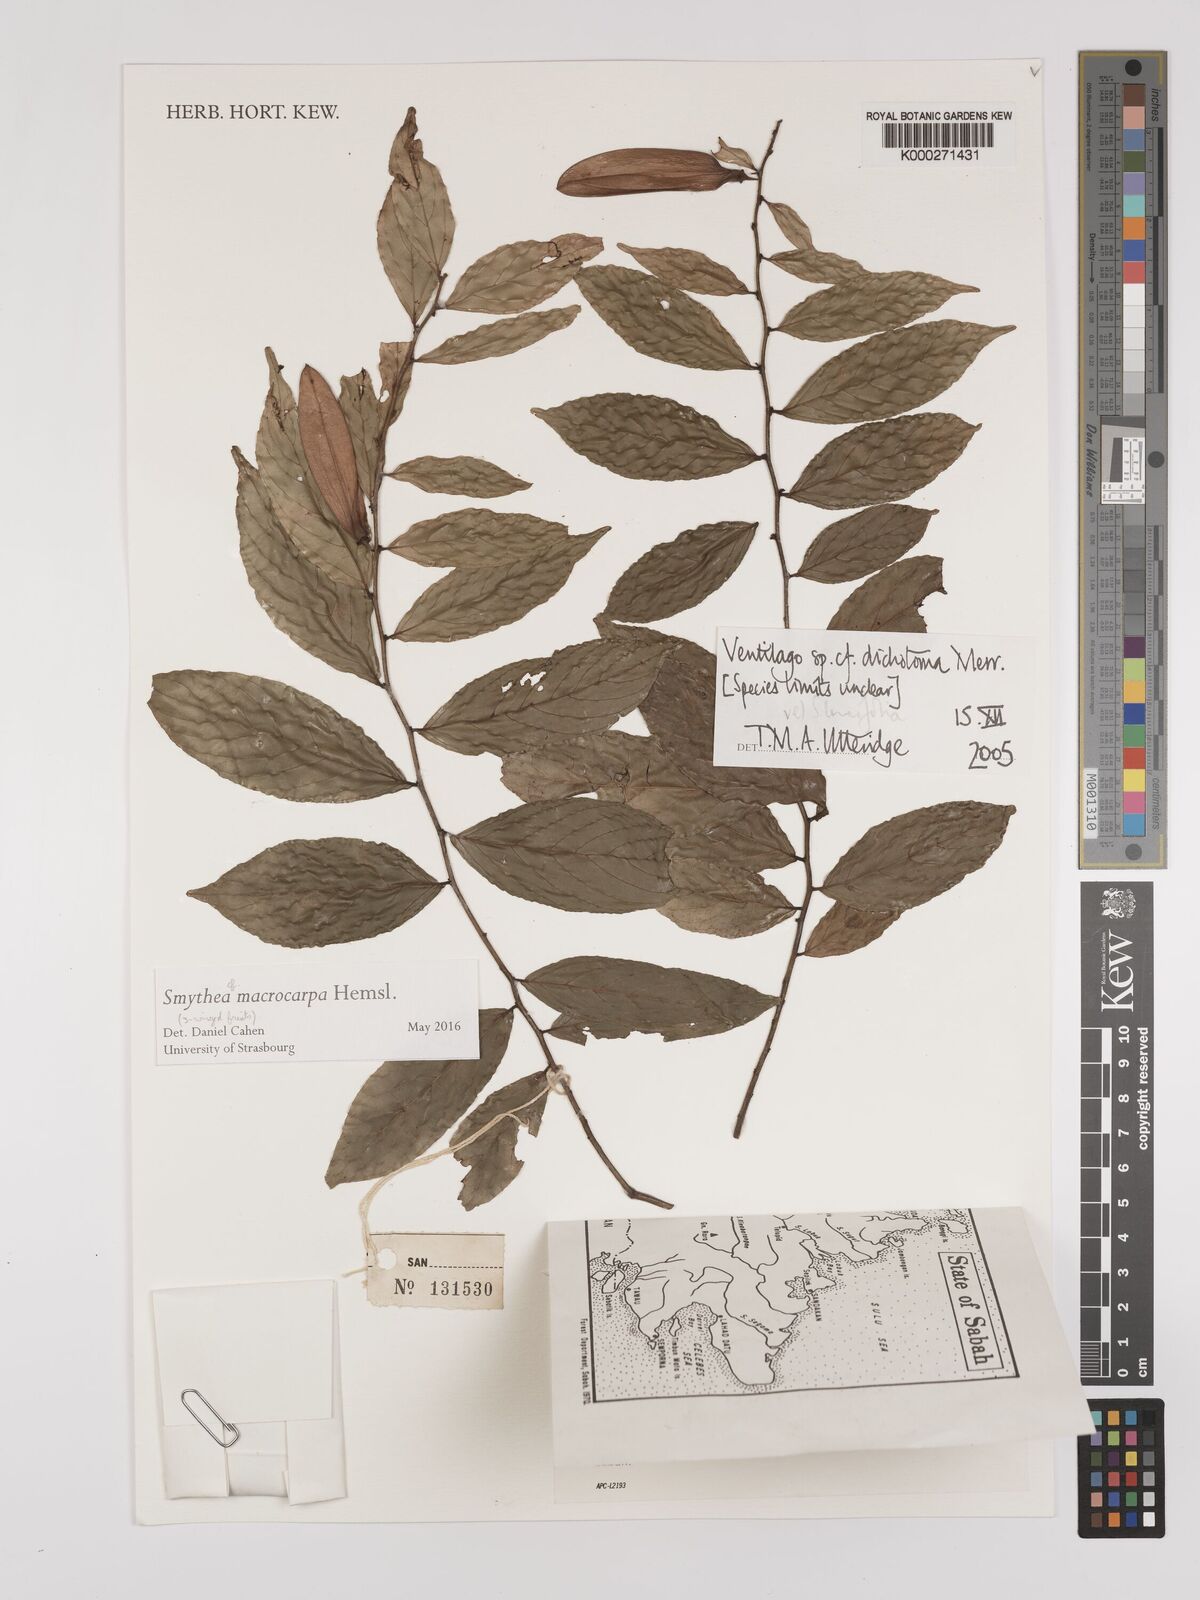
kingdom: Plantae
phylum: Tracheophyta
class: Magnoliopsida
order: Rosales
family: Rhamnaceae
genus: Ventilago
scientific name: Ventilago
